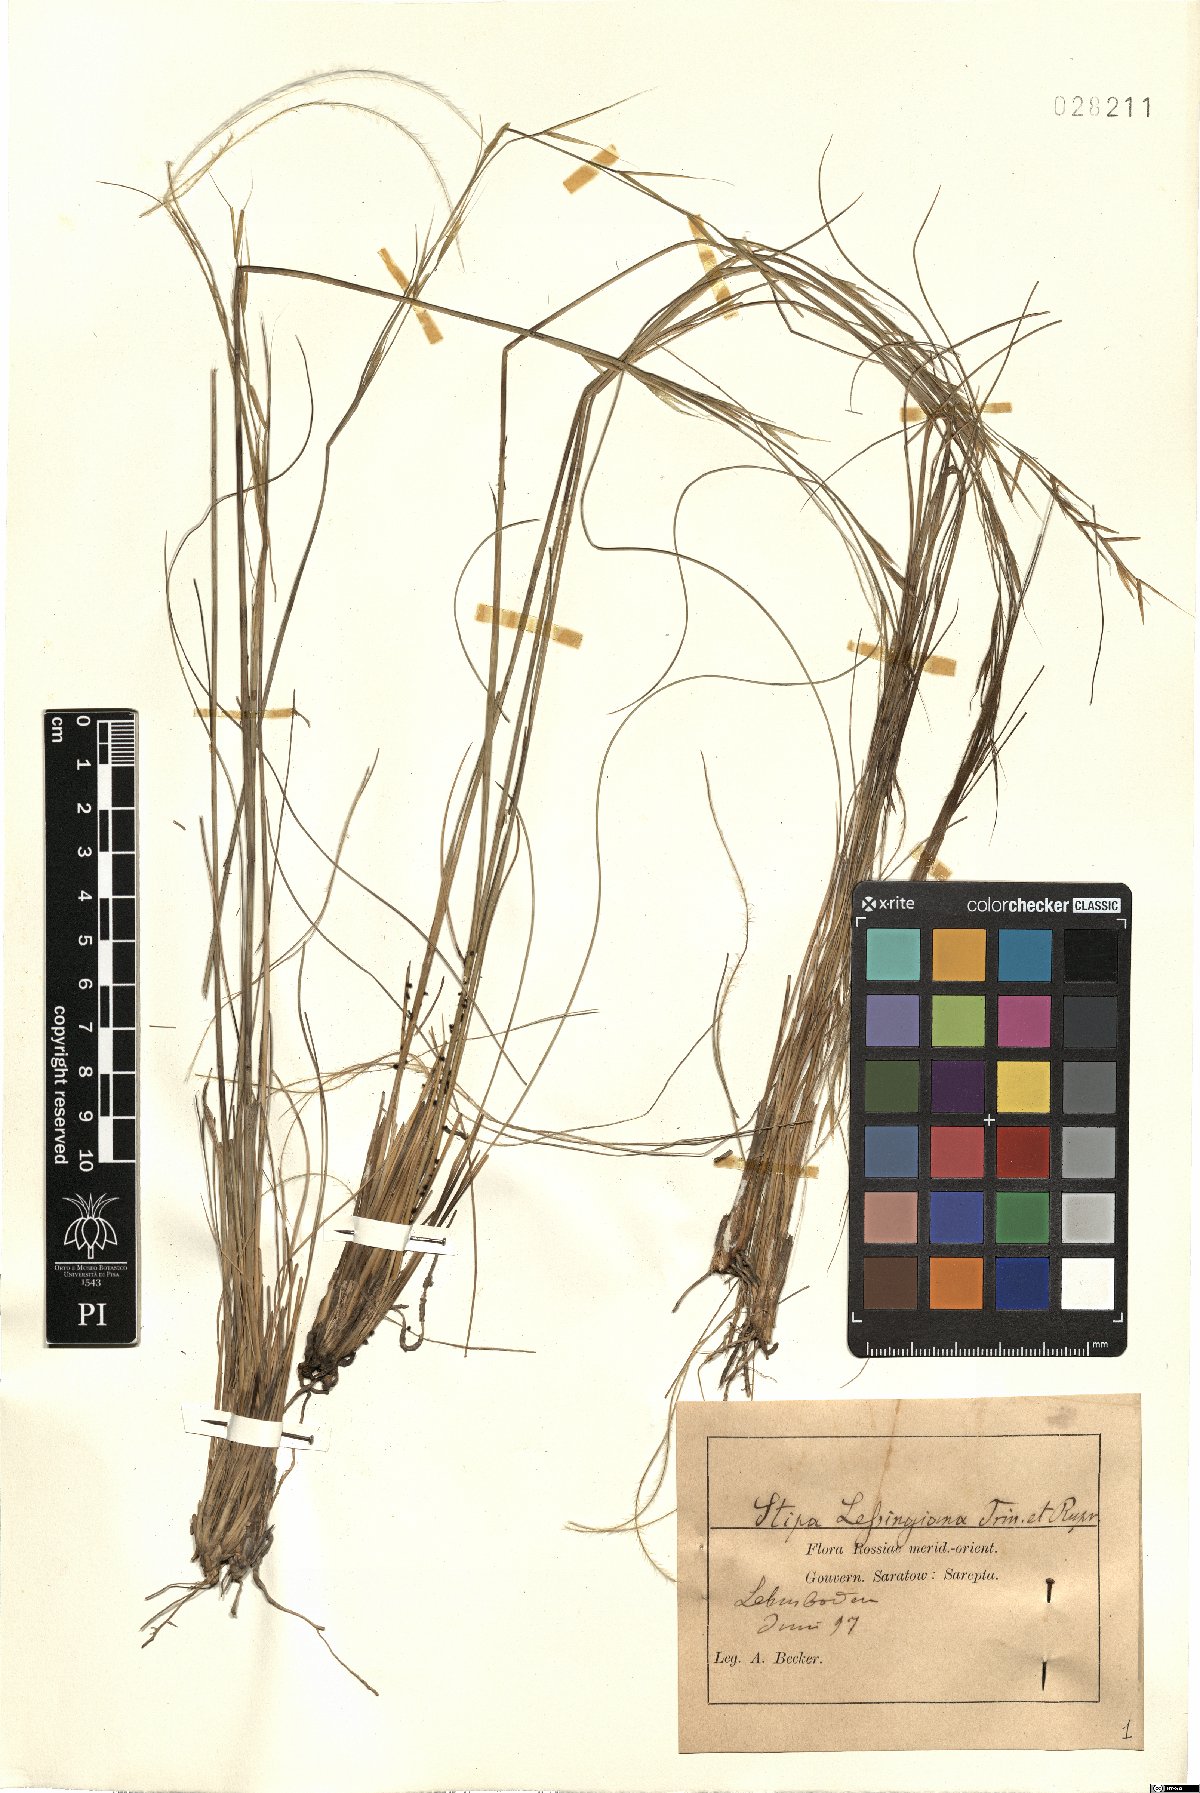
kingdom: Plantae
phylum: Tracheophyta
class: Liliopsida
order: Poales
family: Poaceae
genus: Stipa
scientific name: Stipa lessingiana
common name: Needle grass
